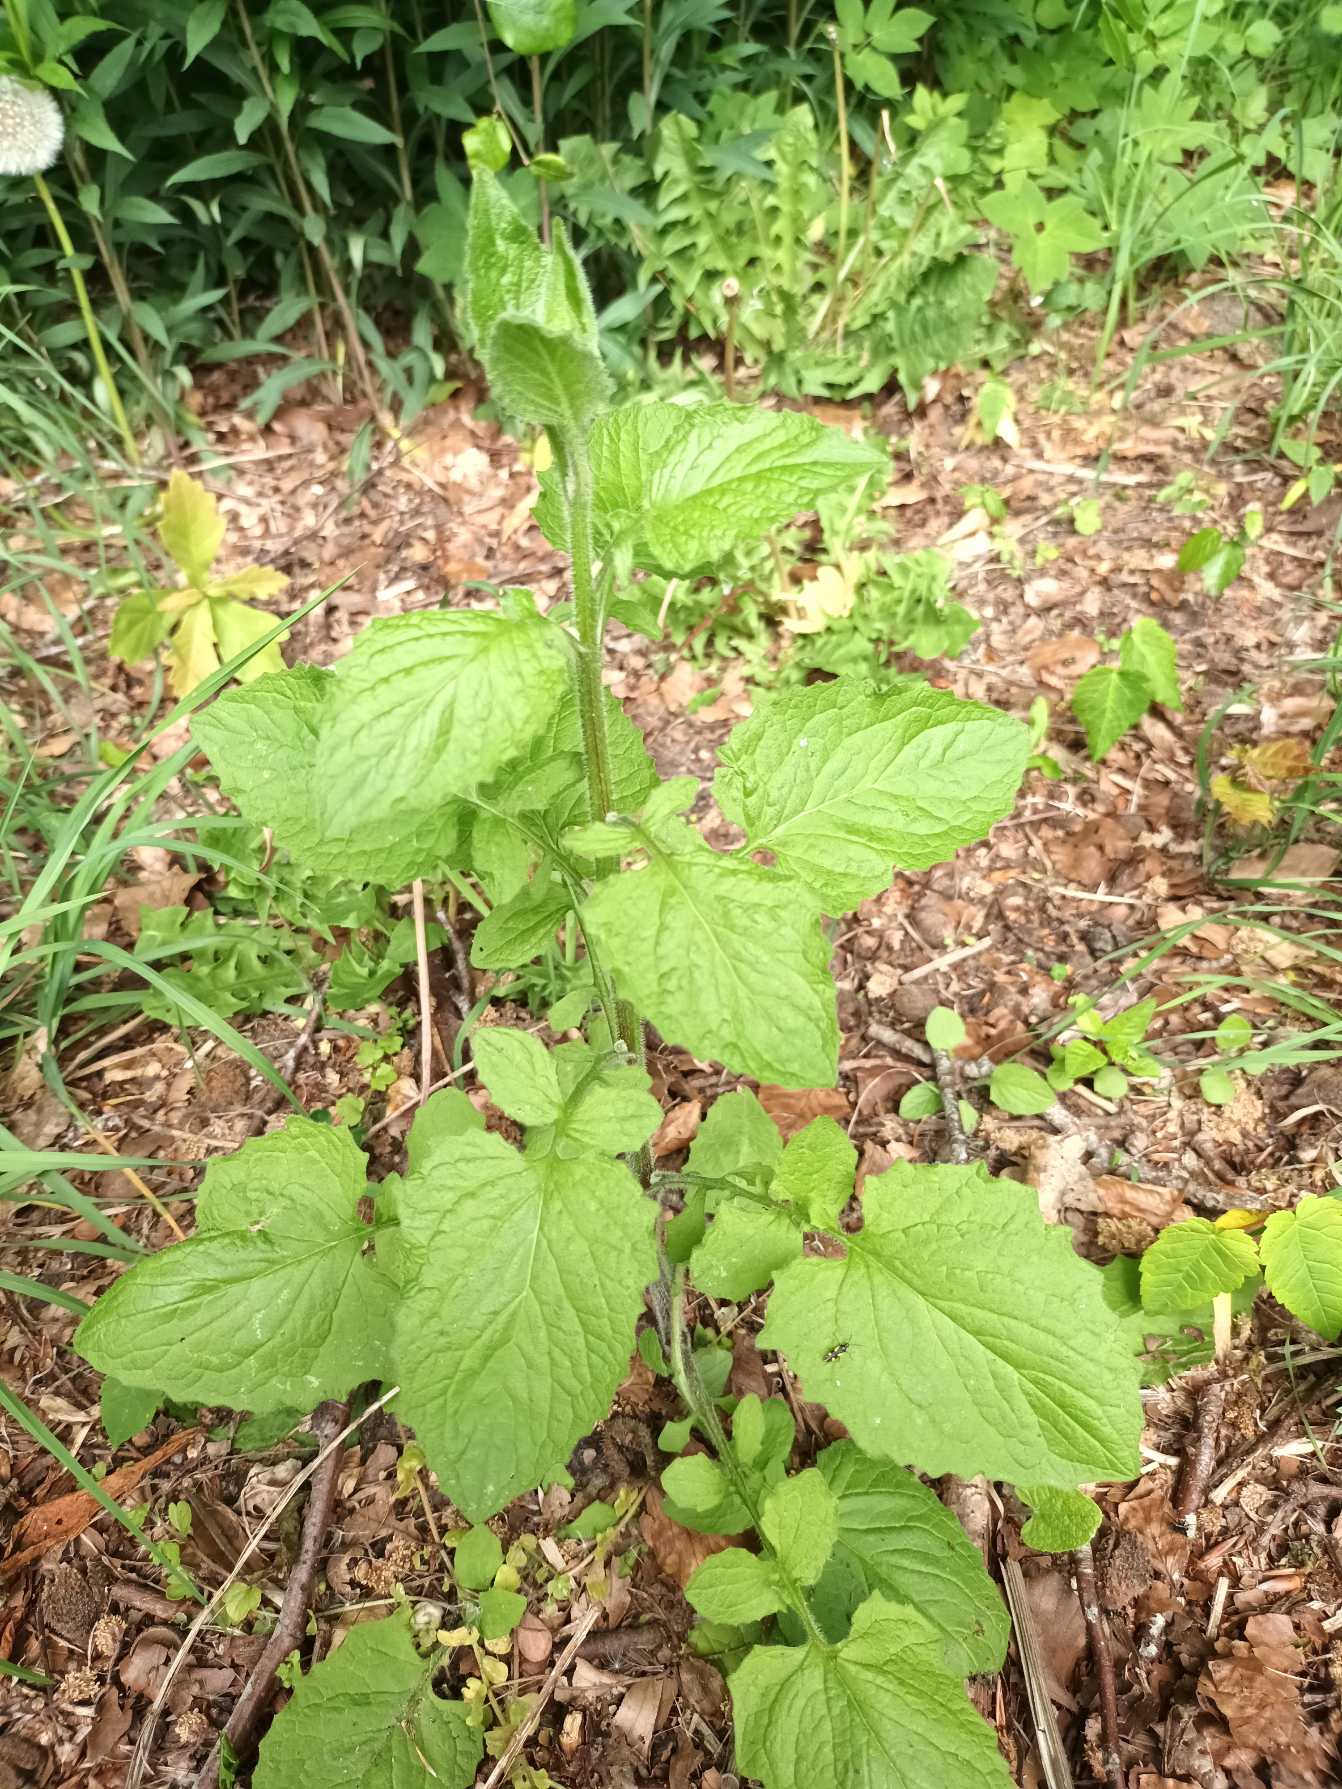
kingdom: Plantae
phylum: Tracheophyta
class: Magnoliopsida
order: Asterales
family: Asteraceae
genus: Lapsana
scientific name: Lapsana communis
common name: Haremad
